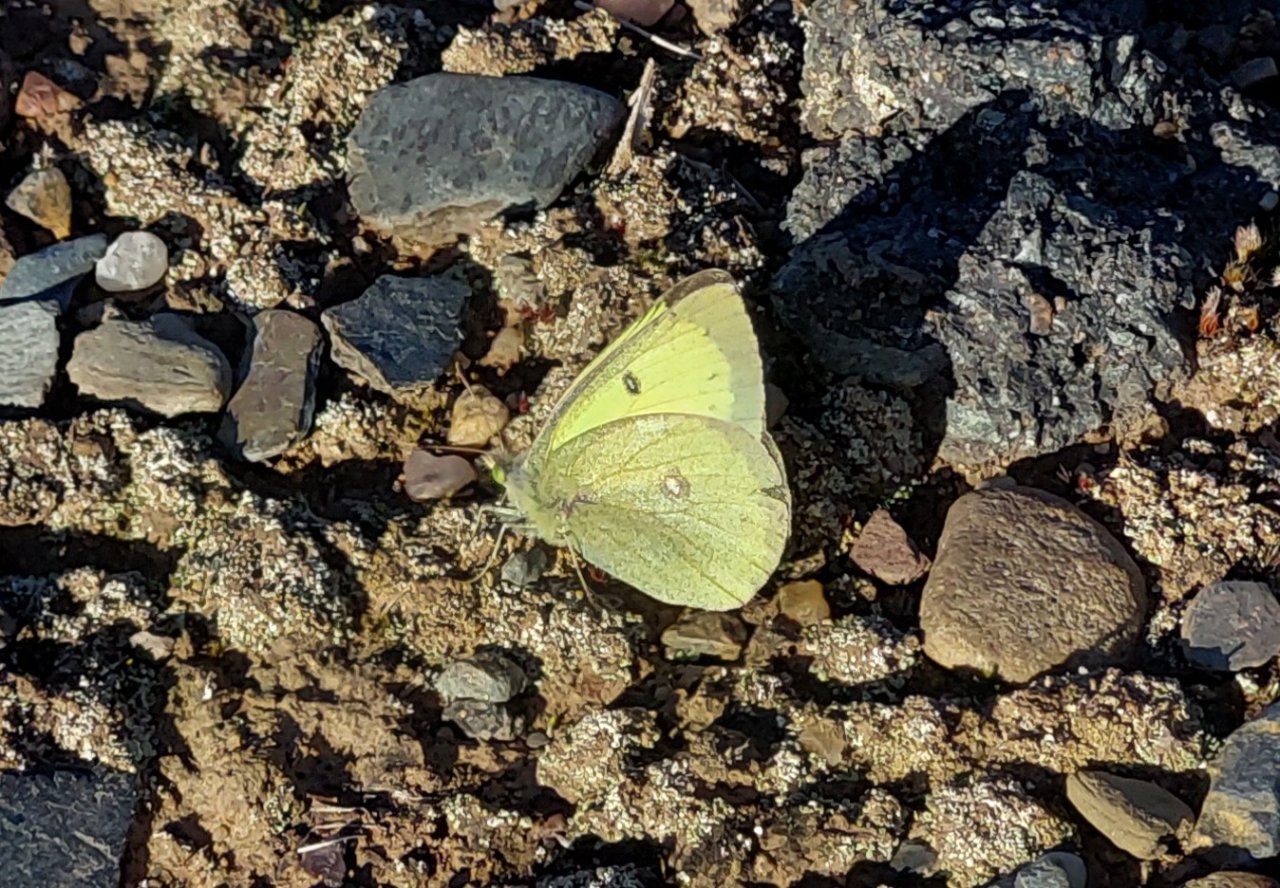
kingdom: Animalia
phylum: Arthropoda
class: Insecta
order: Lepidoptera
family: Pieridae
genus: Colias
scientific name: Colias philodice
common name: Clouded Sulphur
